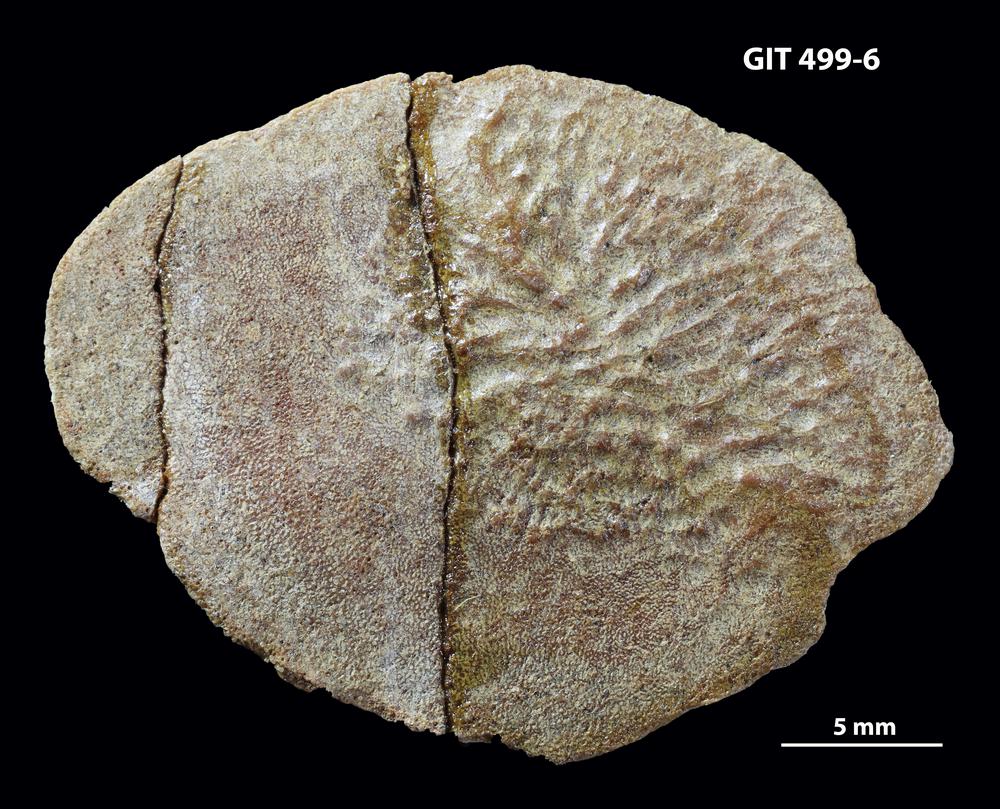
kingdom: Animalia
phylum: Chordata
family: Holoptychiidae
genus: Glyptolepis
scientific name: Glyptolepis
